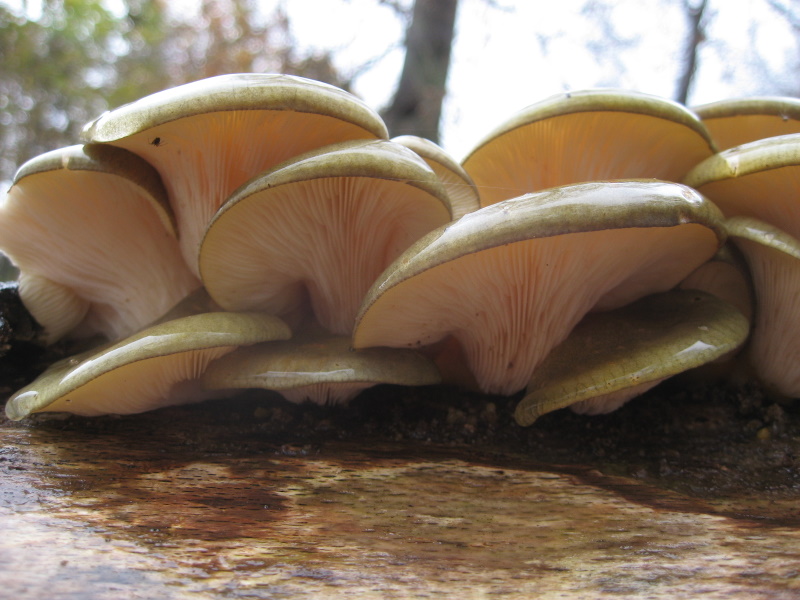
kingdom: Fungi
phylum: Basidiomycota
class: Agaricomycetes
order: Agaricales
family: Sarcomyxaceae
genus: Sarcomyxa
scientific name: Sarcomyxa serotina
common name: gummihat
